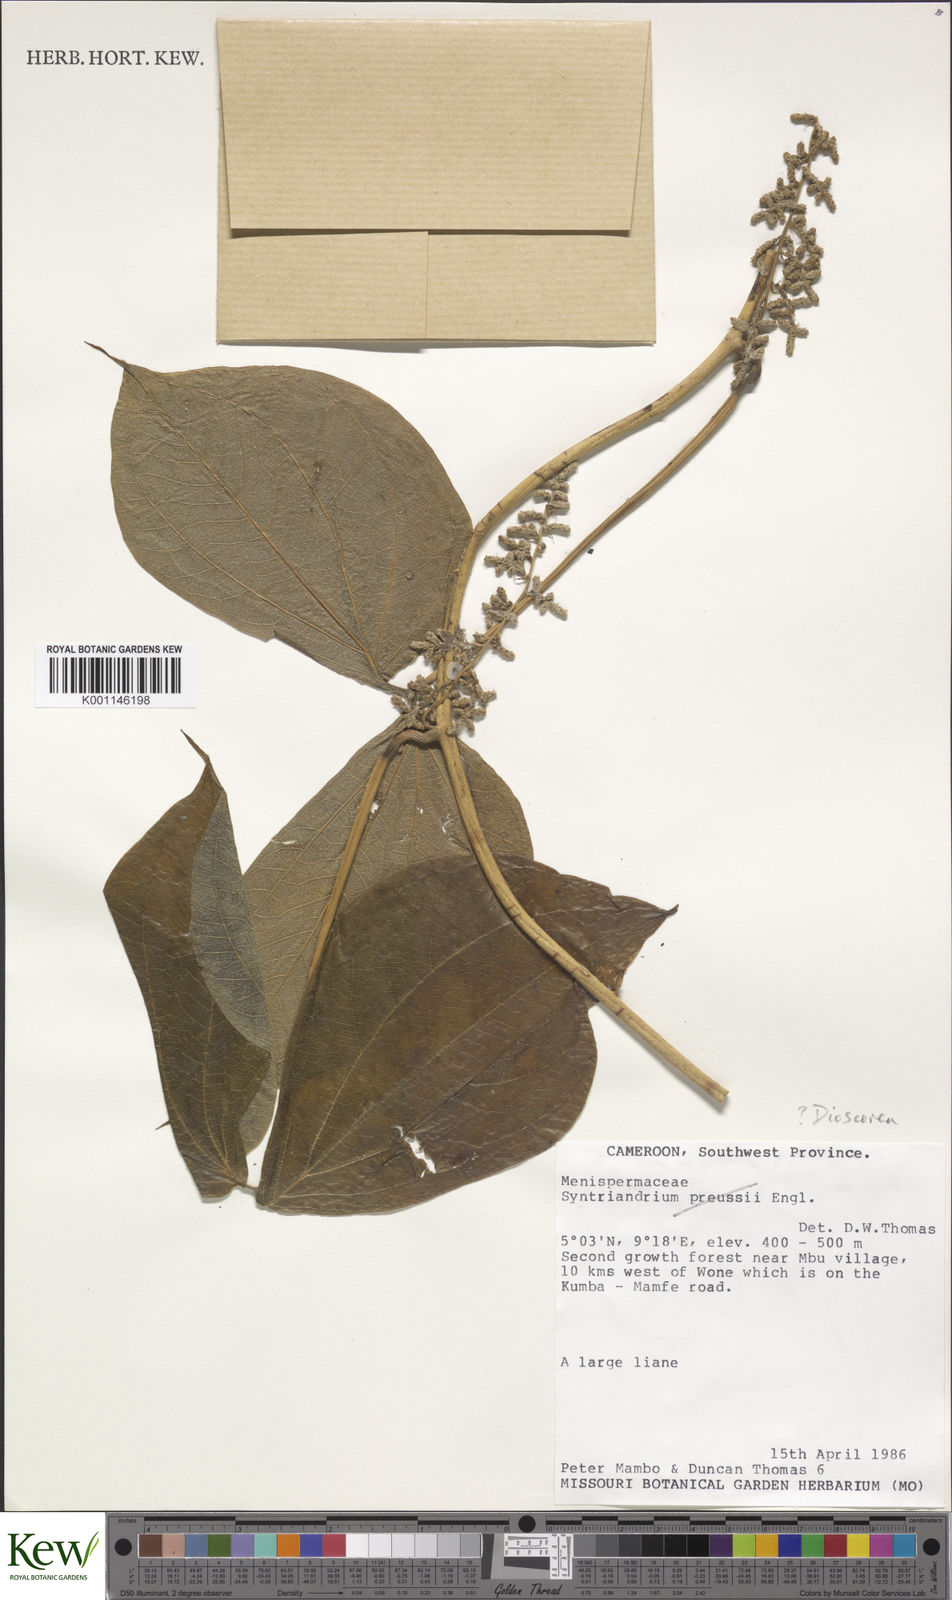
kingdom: Plantae
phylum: Tracheophyta
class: Liliopsida
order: Dioscoreales
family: Dioscoreaceae
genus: Dioscorea
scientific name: Dioscorea dumetorum
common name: African bitter yam
